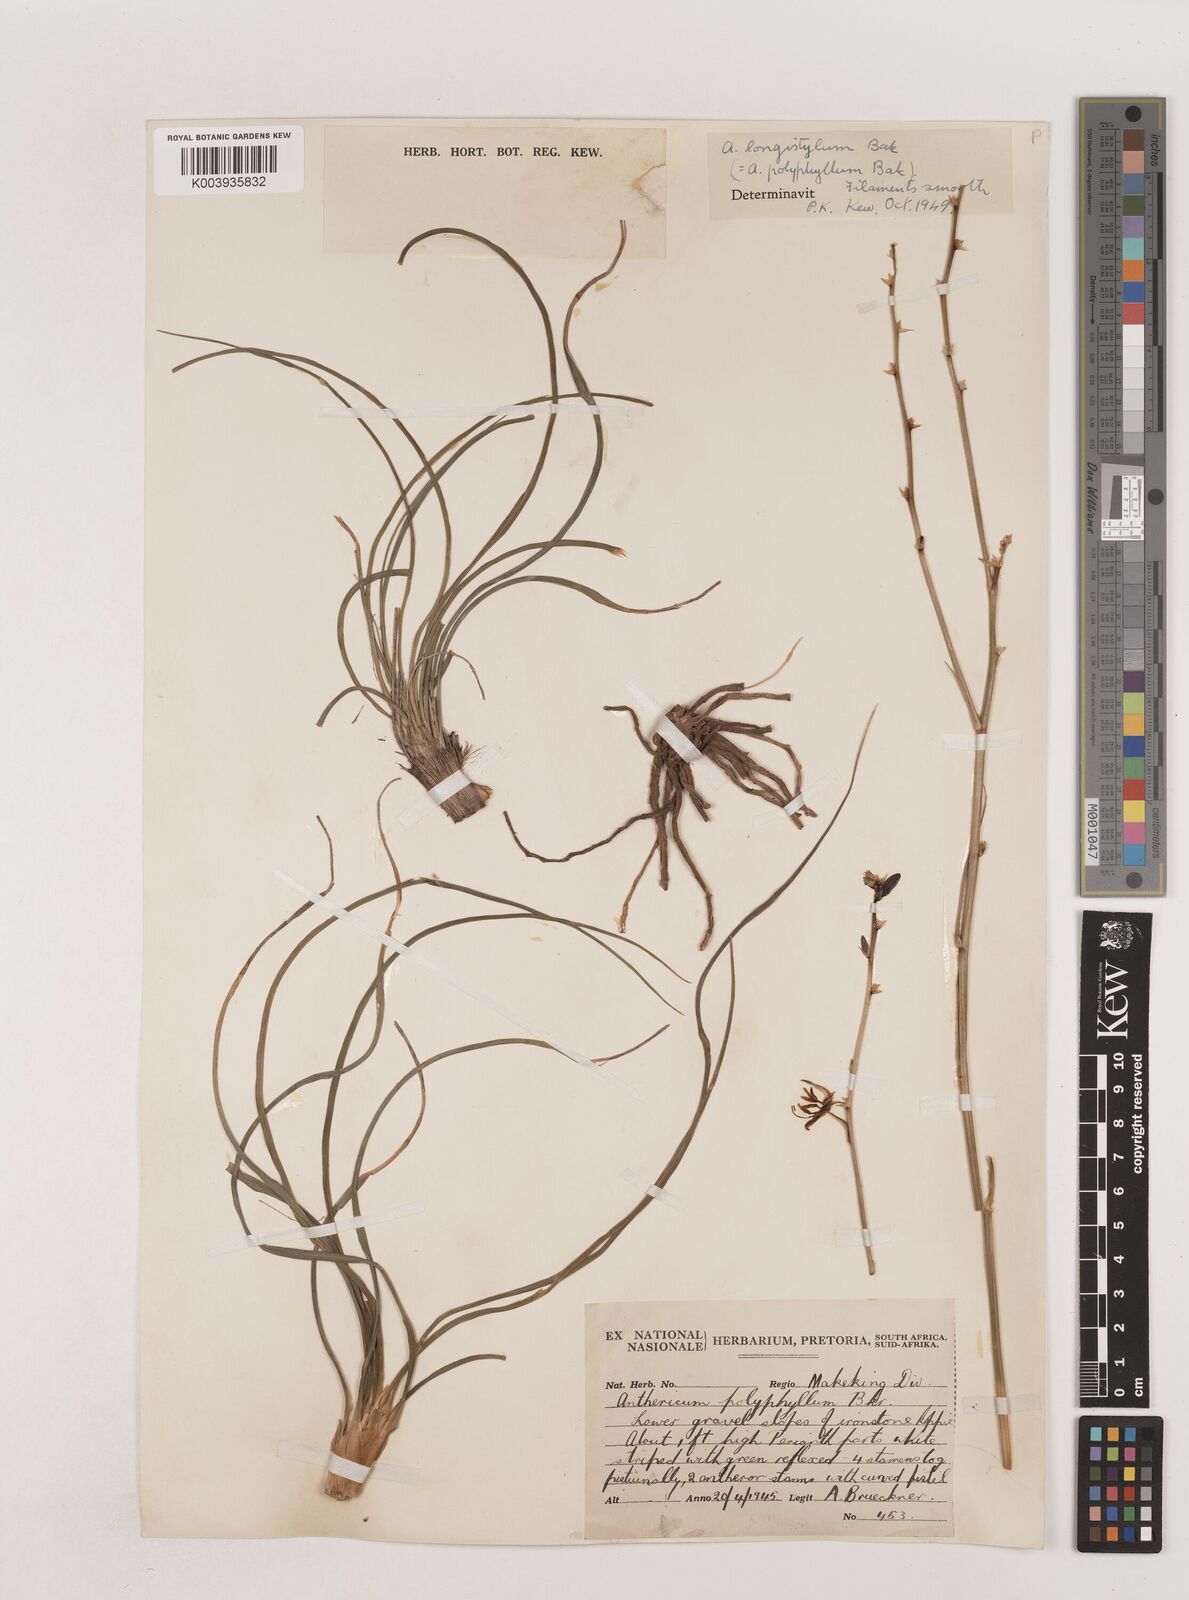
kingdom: Plantae
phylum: Tracheophyta
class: Liliopsida
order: Asparagales
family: Asparagaceae
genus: Chlorophytum
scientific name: Chlorophytum recurvifolium
